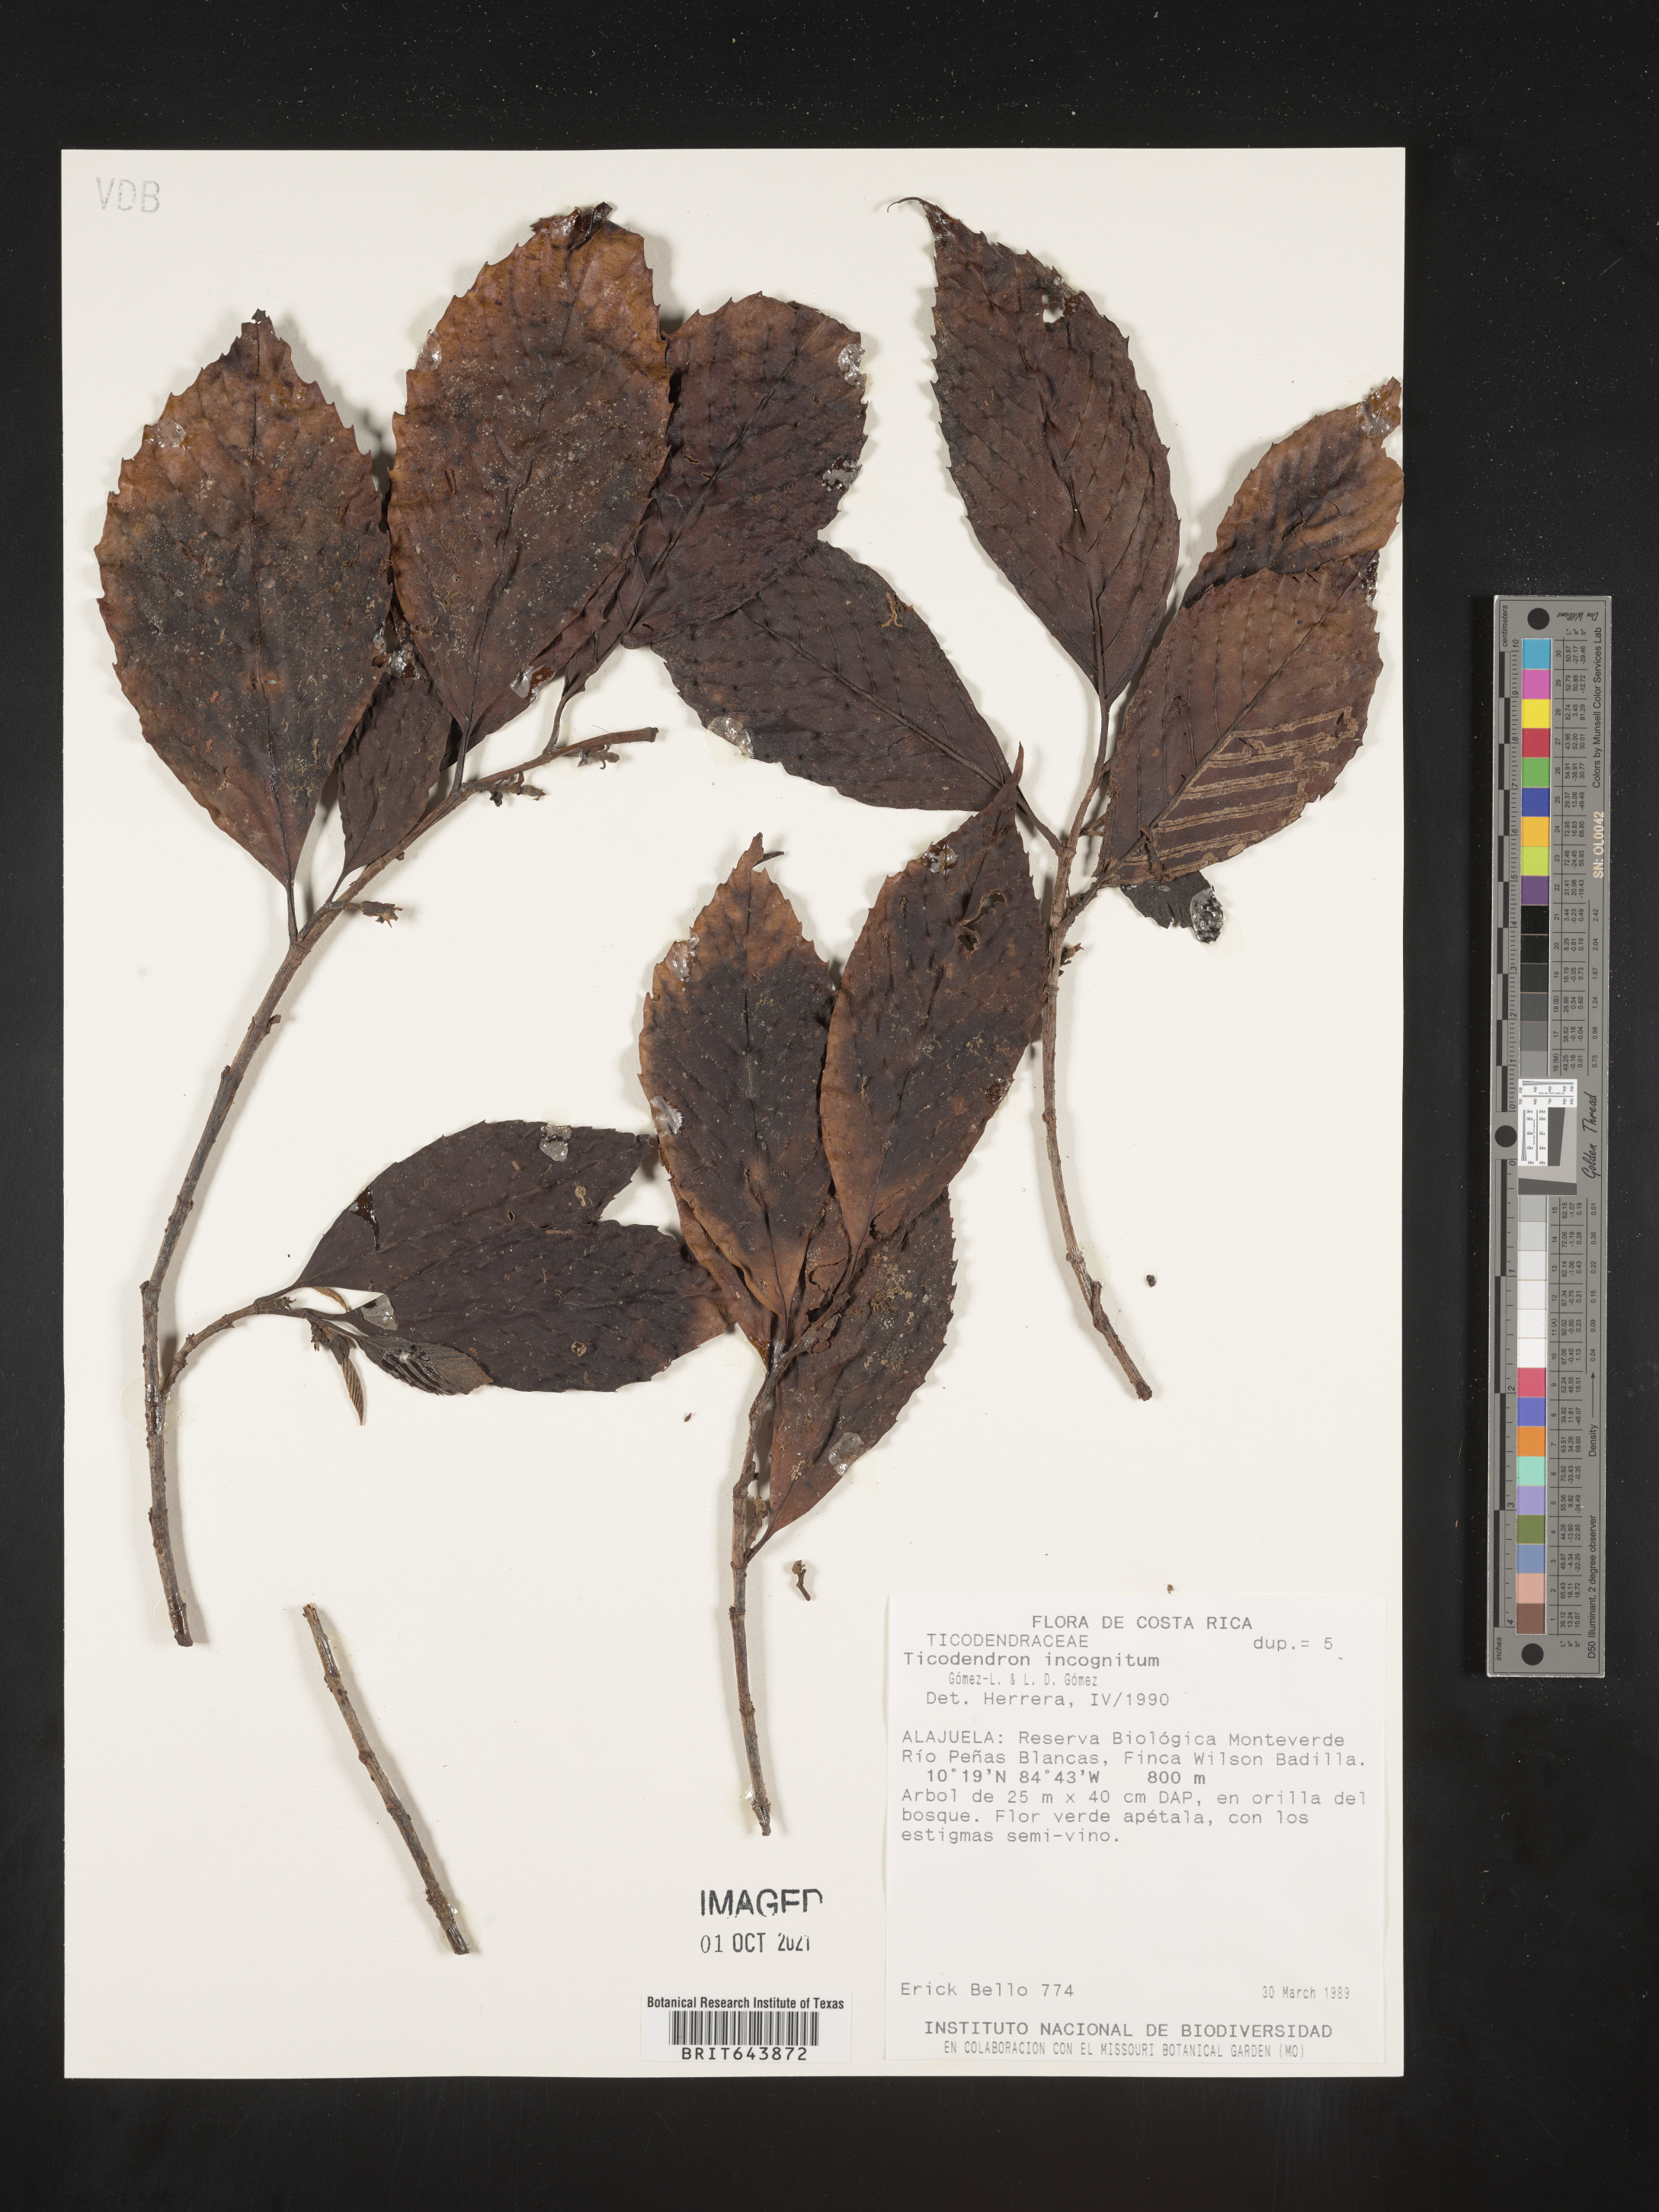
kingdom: Plantae
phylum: Tracheophyta
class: Magnoliopsida
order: Fagales
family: Ticodendraceae
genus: Ticodendron
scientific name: Ticodendron
